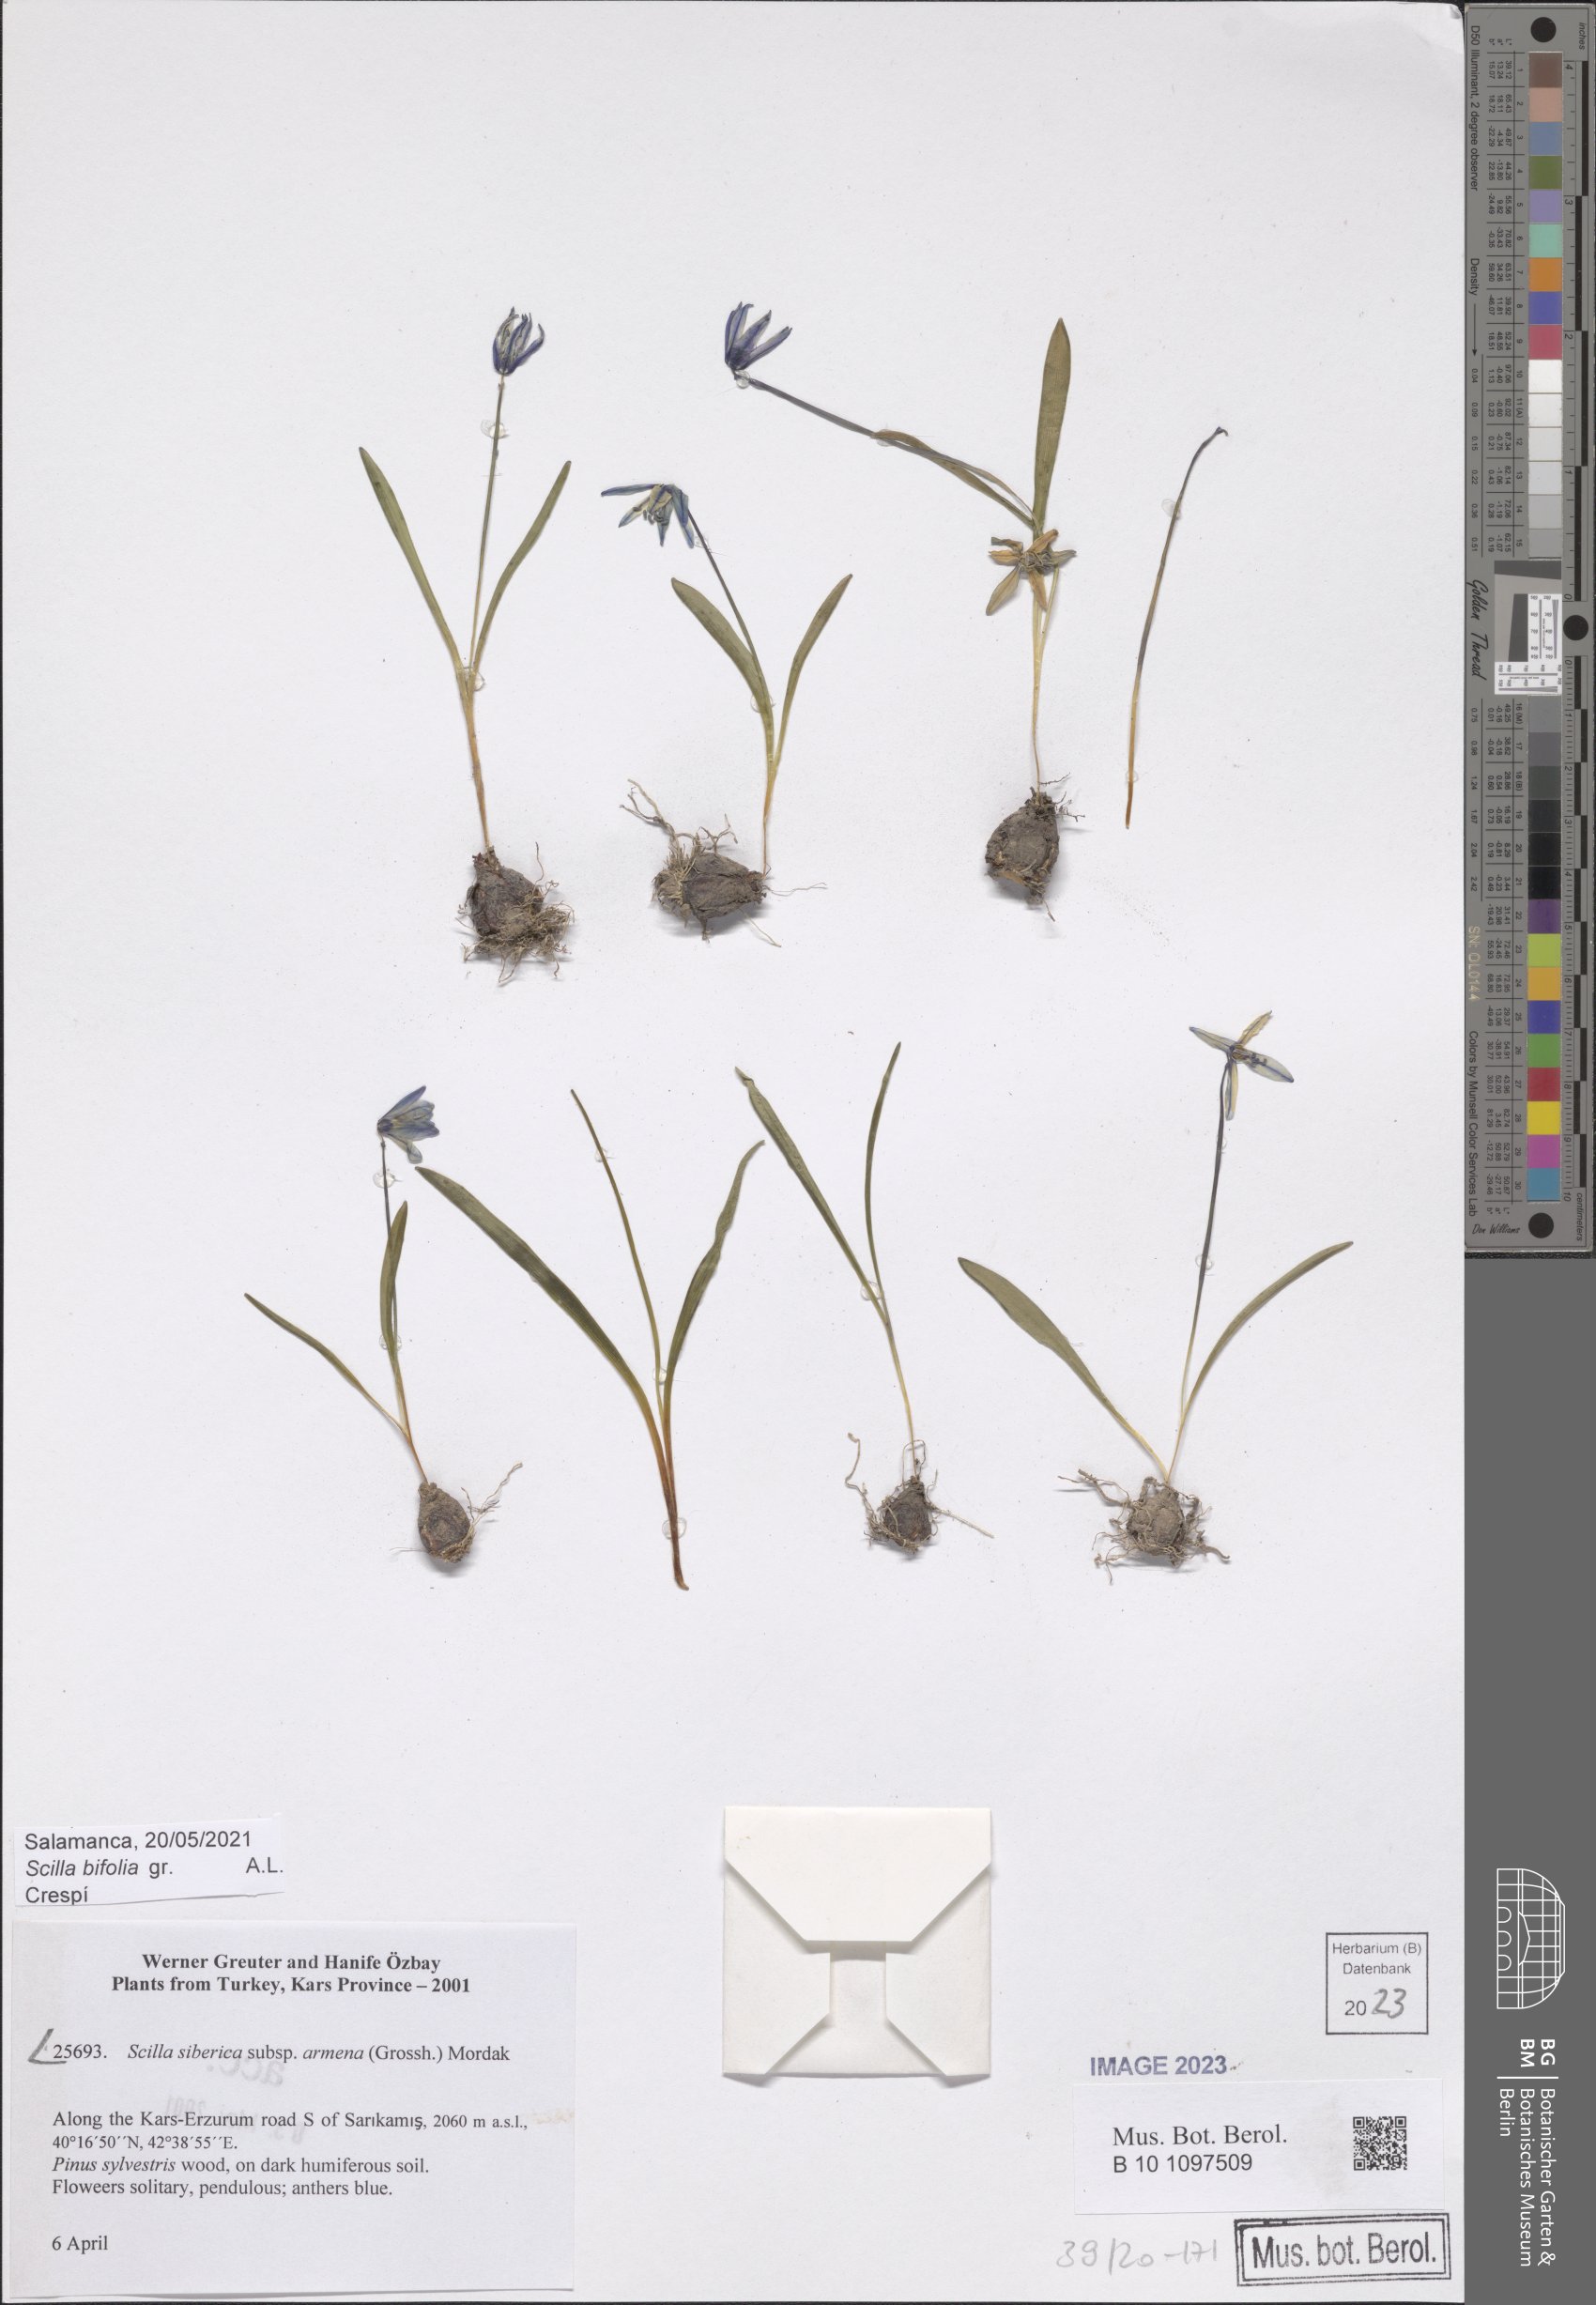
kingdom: Plantae
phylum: Tracheophyta
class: Liliopsida
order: Asparagales
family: Asparagaceae
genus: Scilla
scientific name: Scilla siberica
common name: Siberian squill
